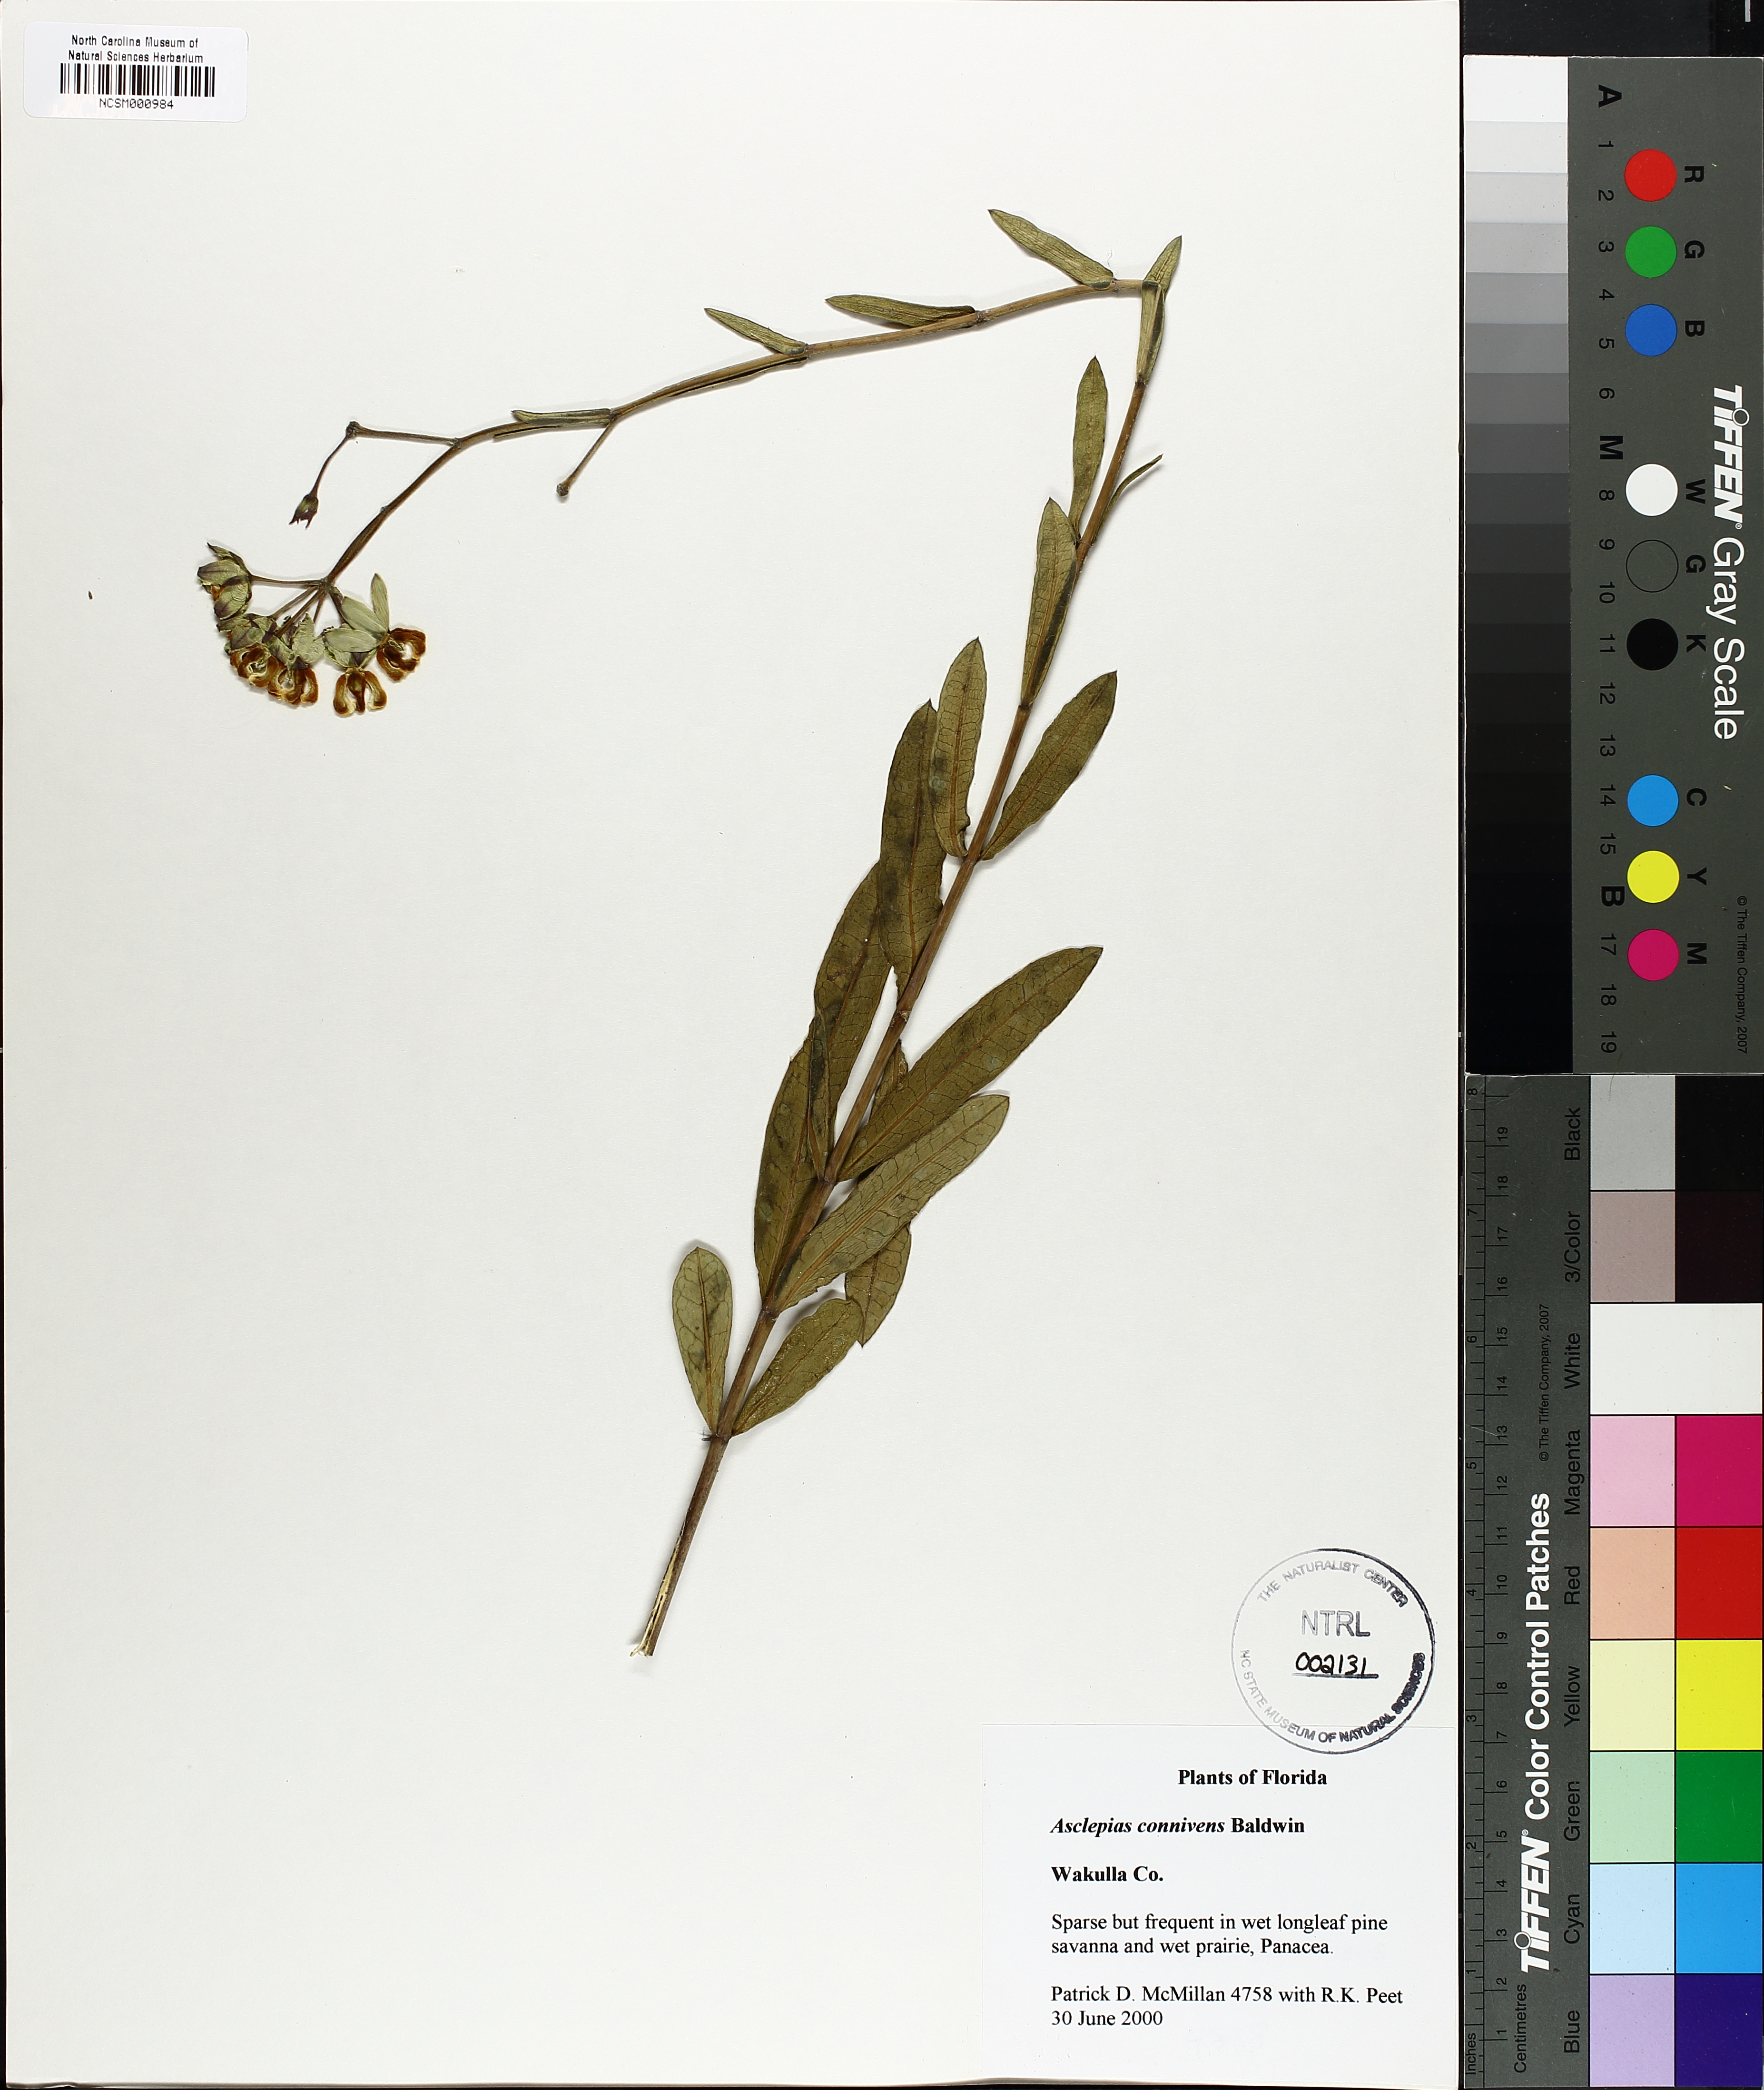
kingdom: Plantae
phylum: Tracheophyta
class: Magnoliopsida
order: Gentianales
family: Apocynaceae
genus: Asclepias
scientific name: Asclepias connivens
